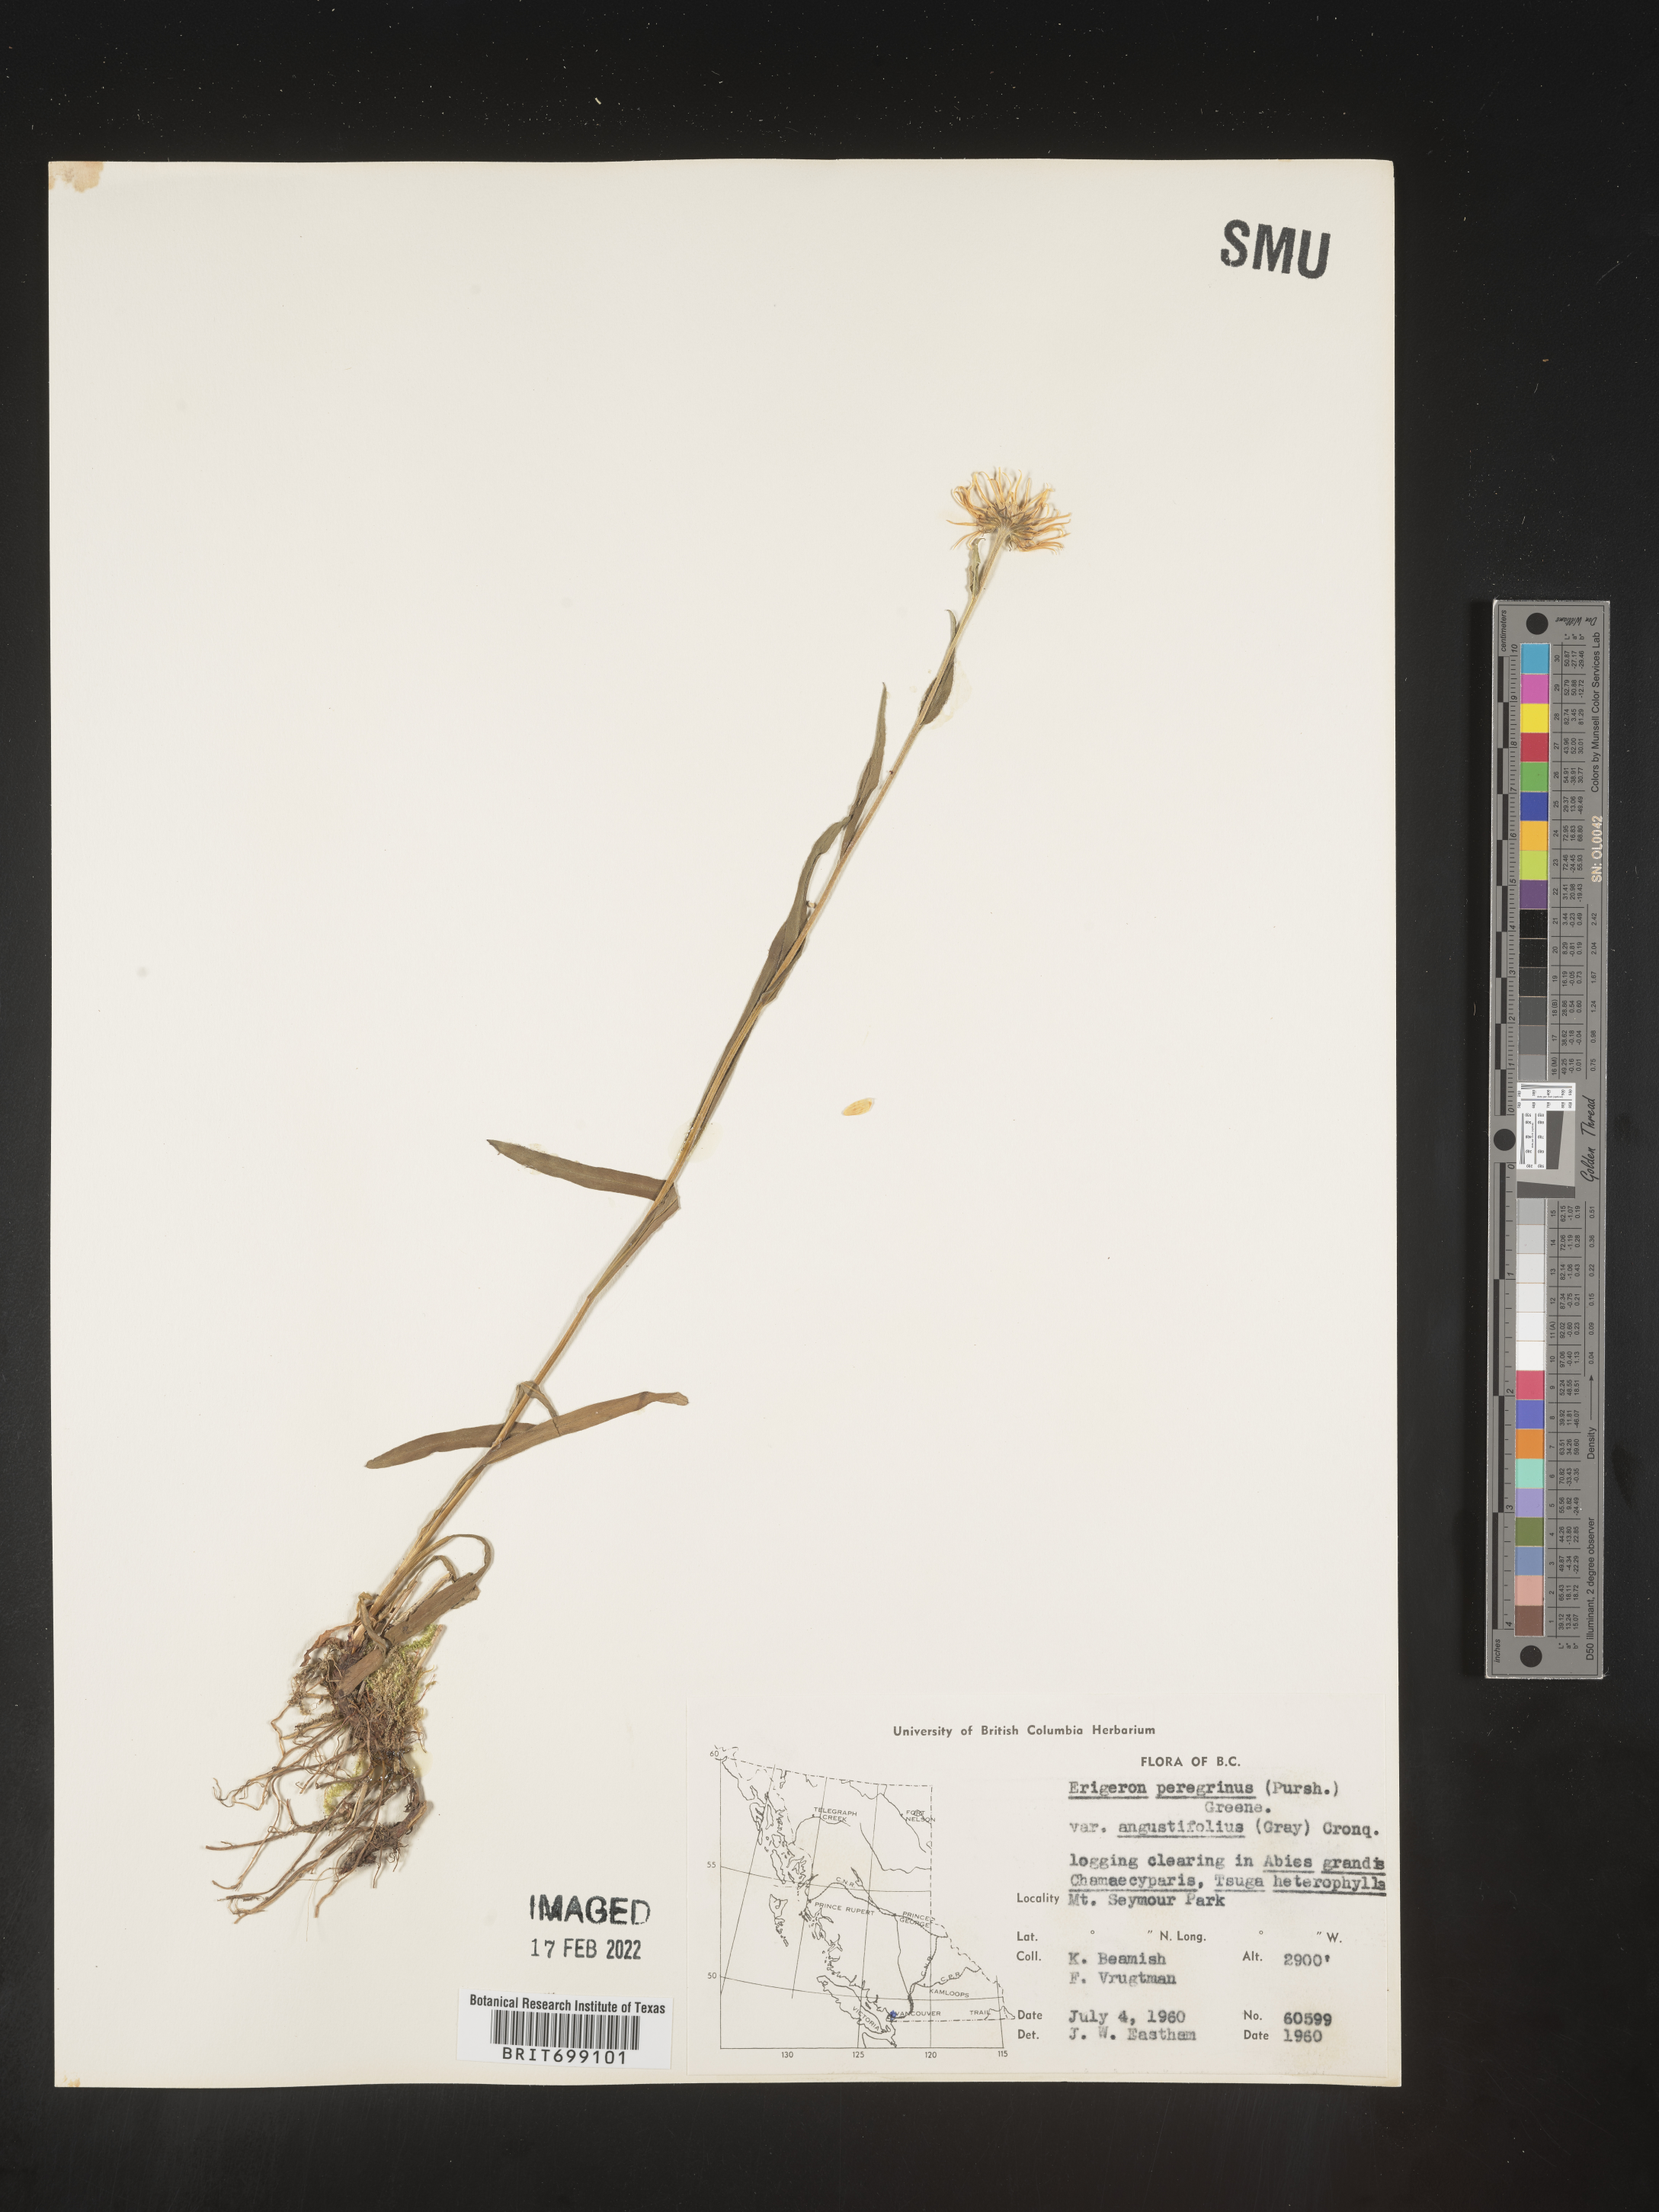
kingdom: Plantae
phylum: Tracheophyta
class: Magnoliopsida
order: Asterales
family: Asteraceae
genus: Erigeron
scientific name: Erigeron peregrinus
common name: Peregrine fleabane
